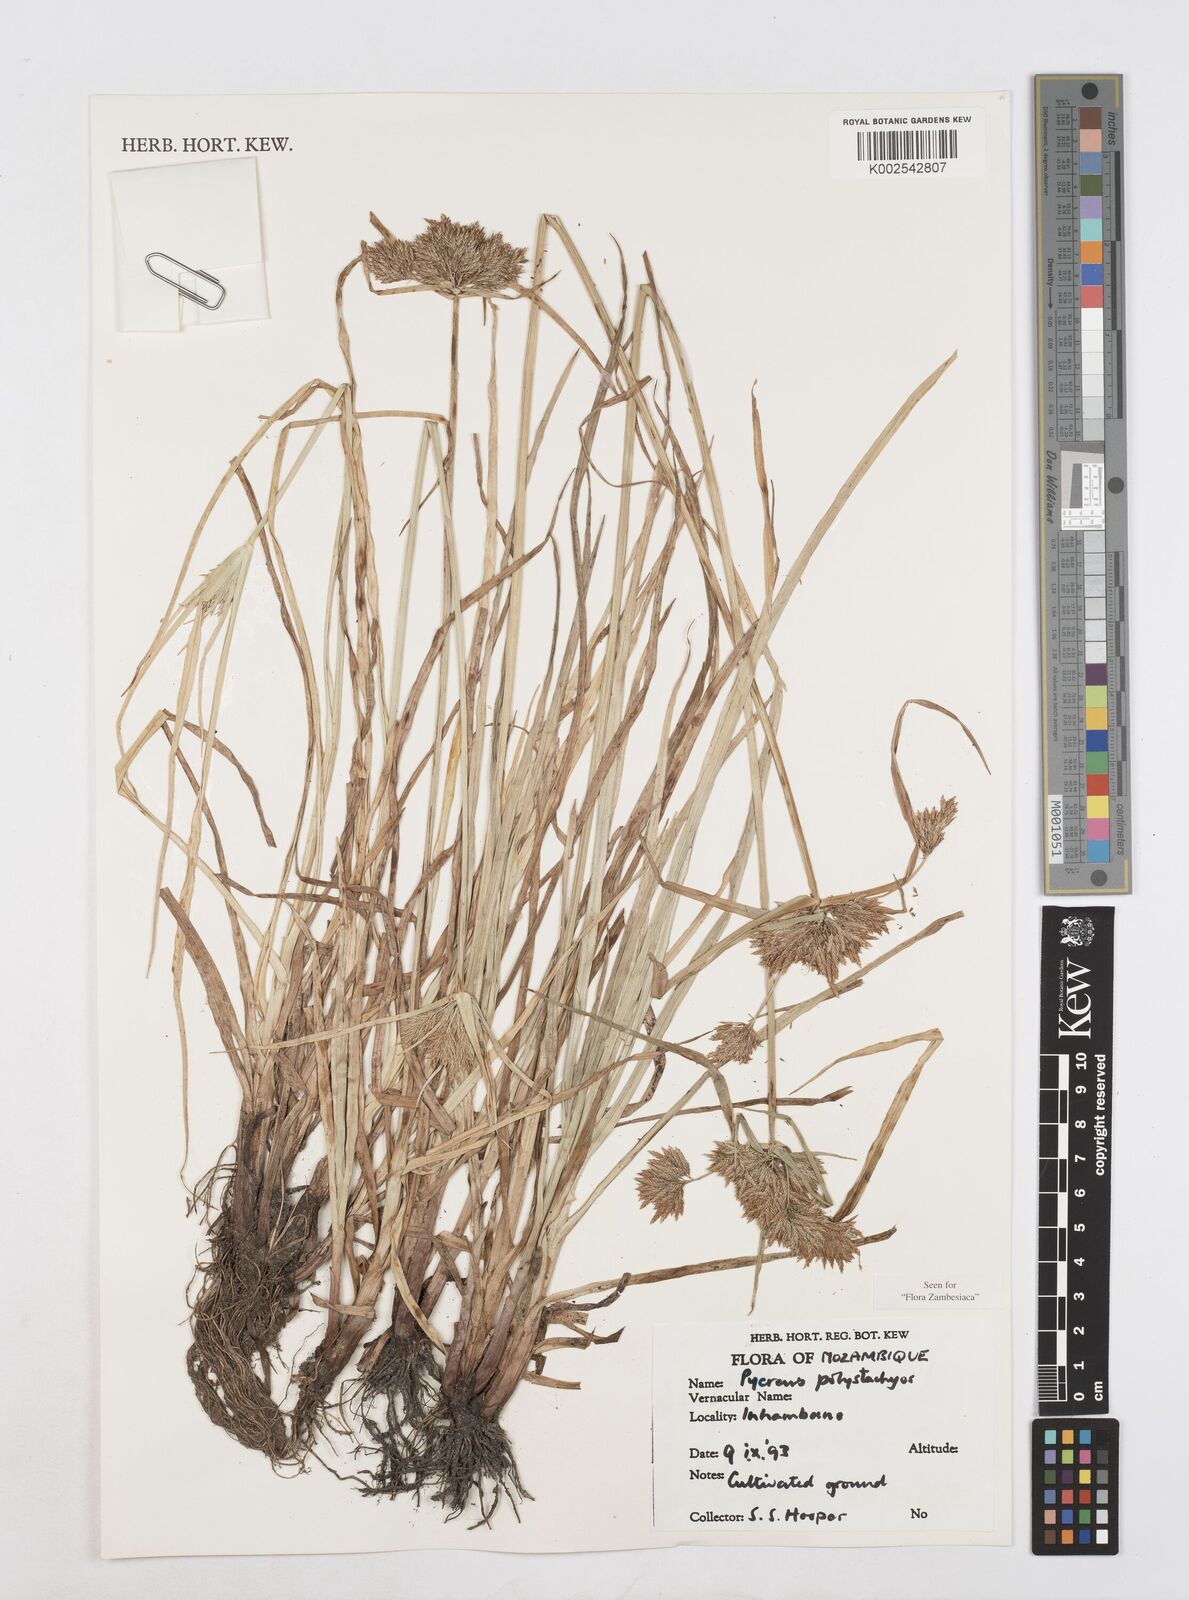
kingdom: Plantae
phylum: Tracheophyta
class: Liliopsida
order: Poales
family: Cyperaceae
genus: Cyperus
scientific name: Cyperus polystachyos
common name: Bunchy flat sedge
